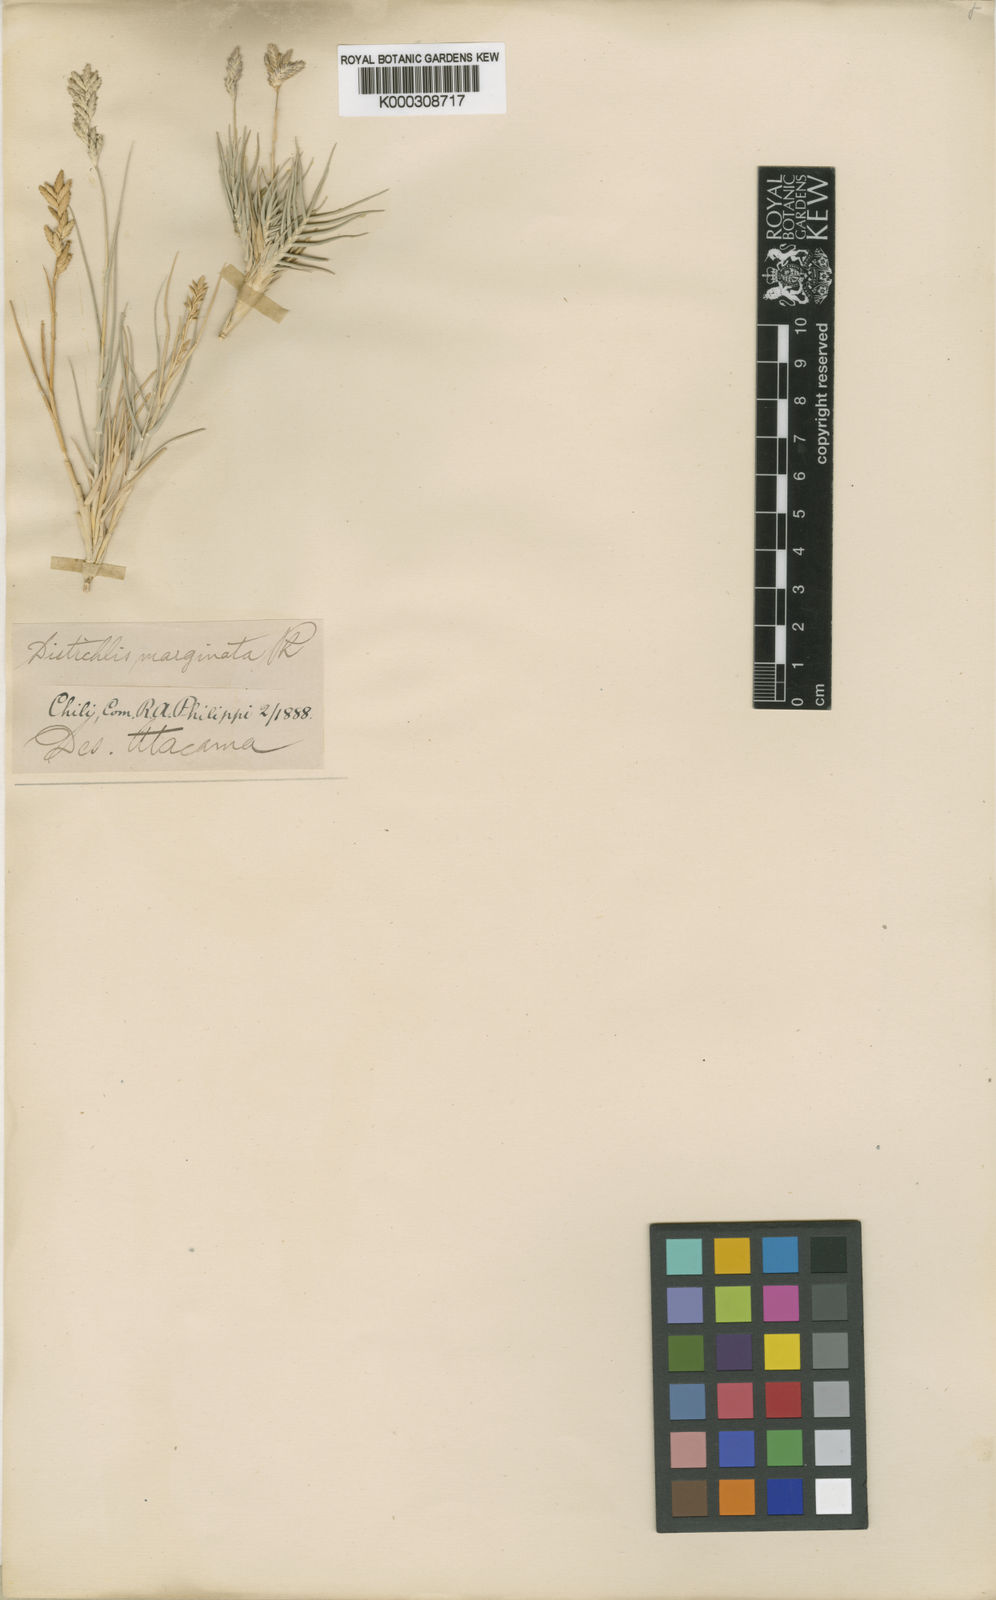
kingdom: Plantae
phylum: Tracheophyta
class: Liliopsida
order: Poales
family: Poaceae
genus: Distichlis
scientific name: Distichlis spicata
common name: Saltgrass
